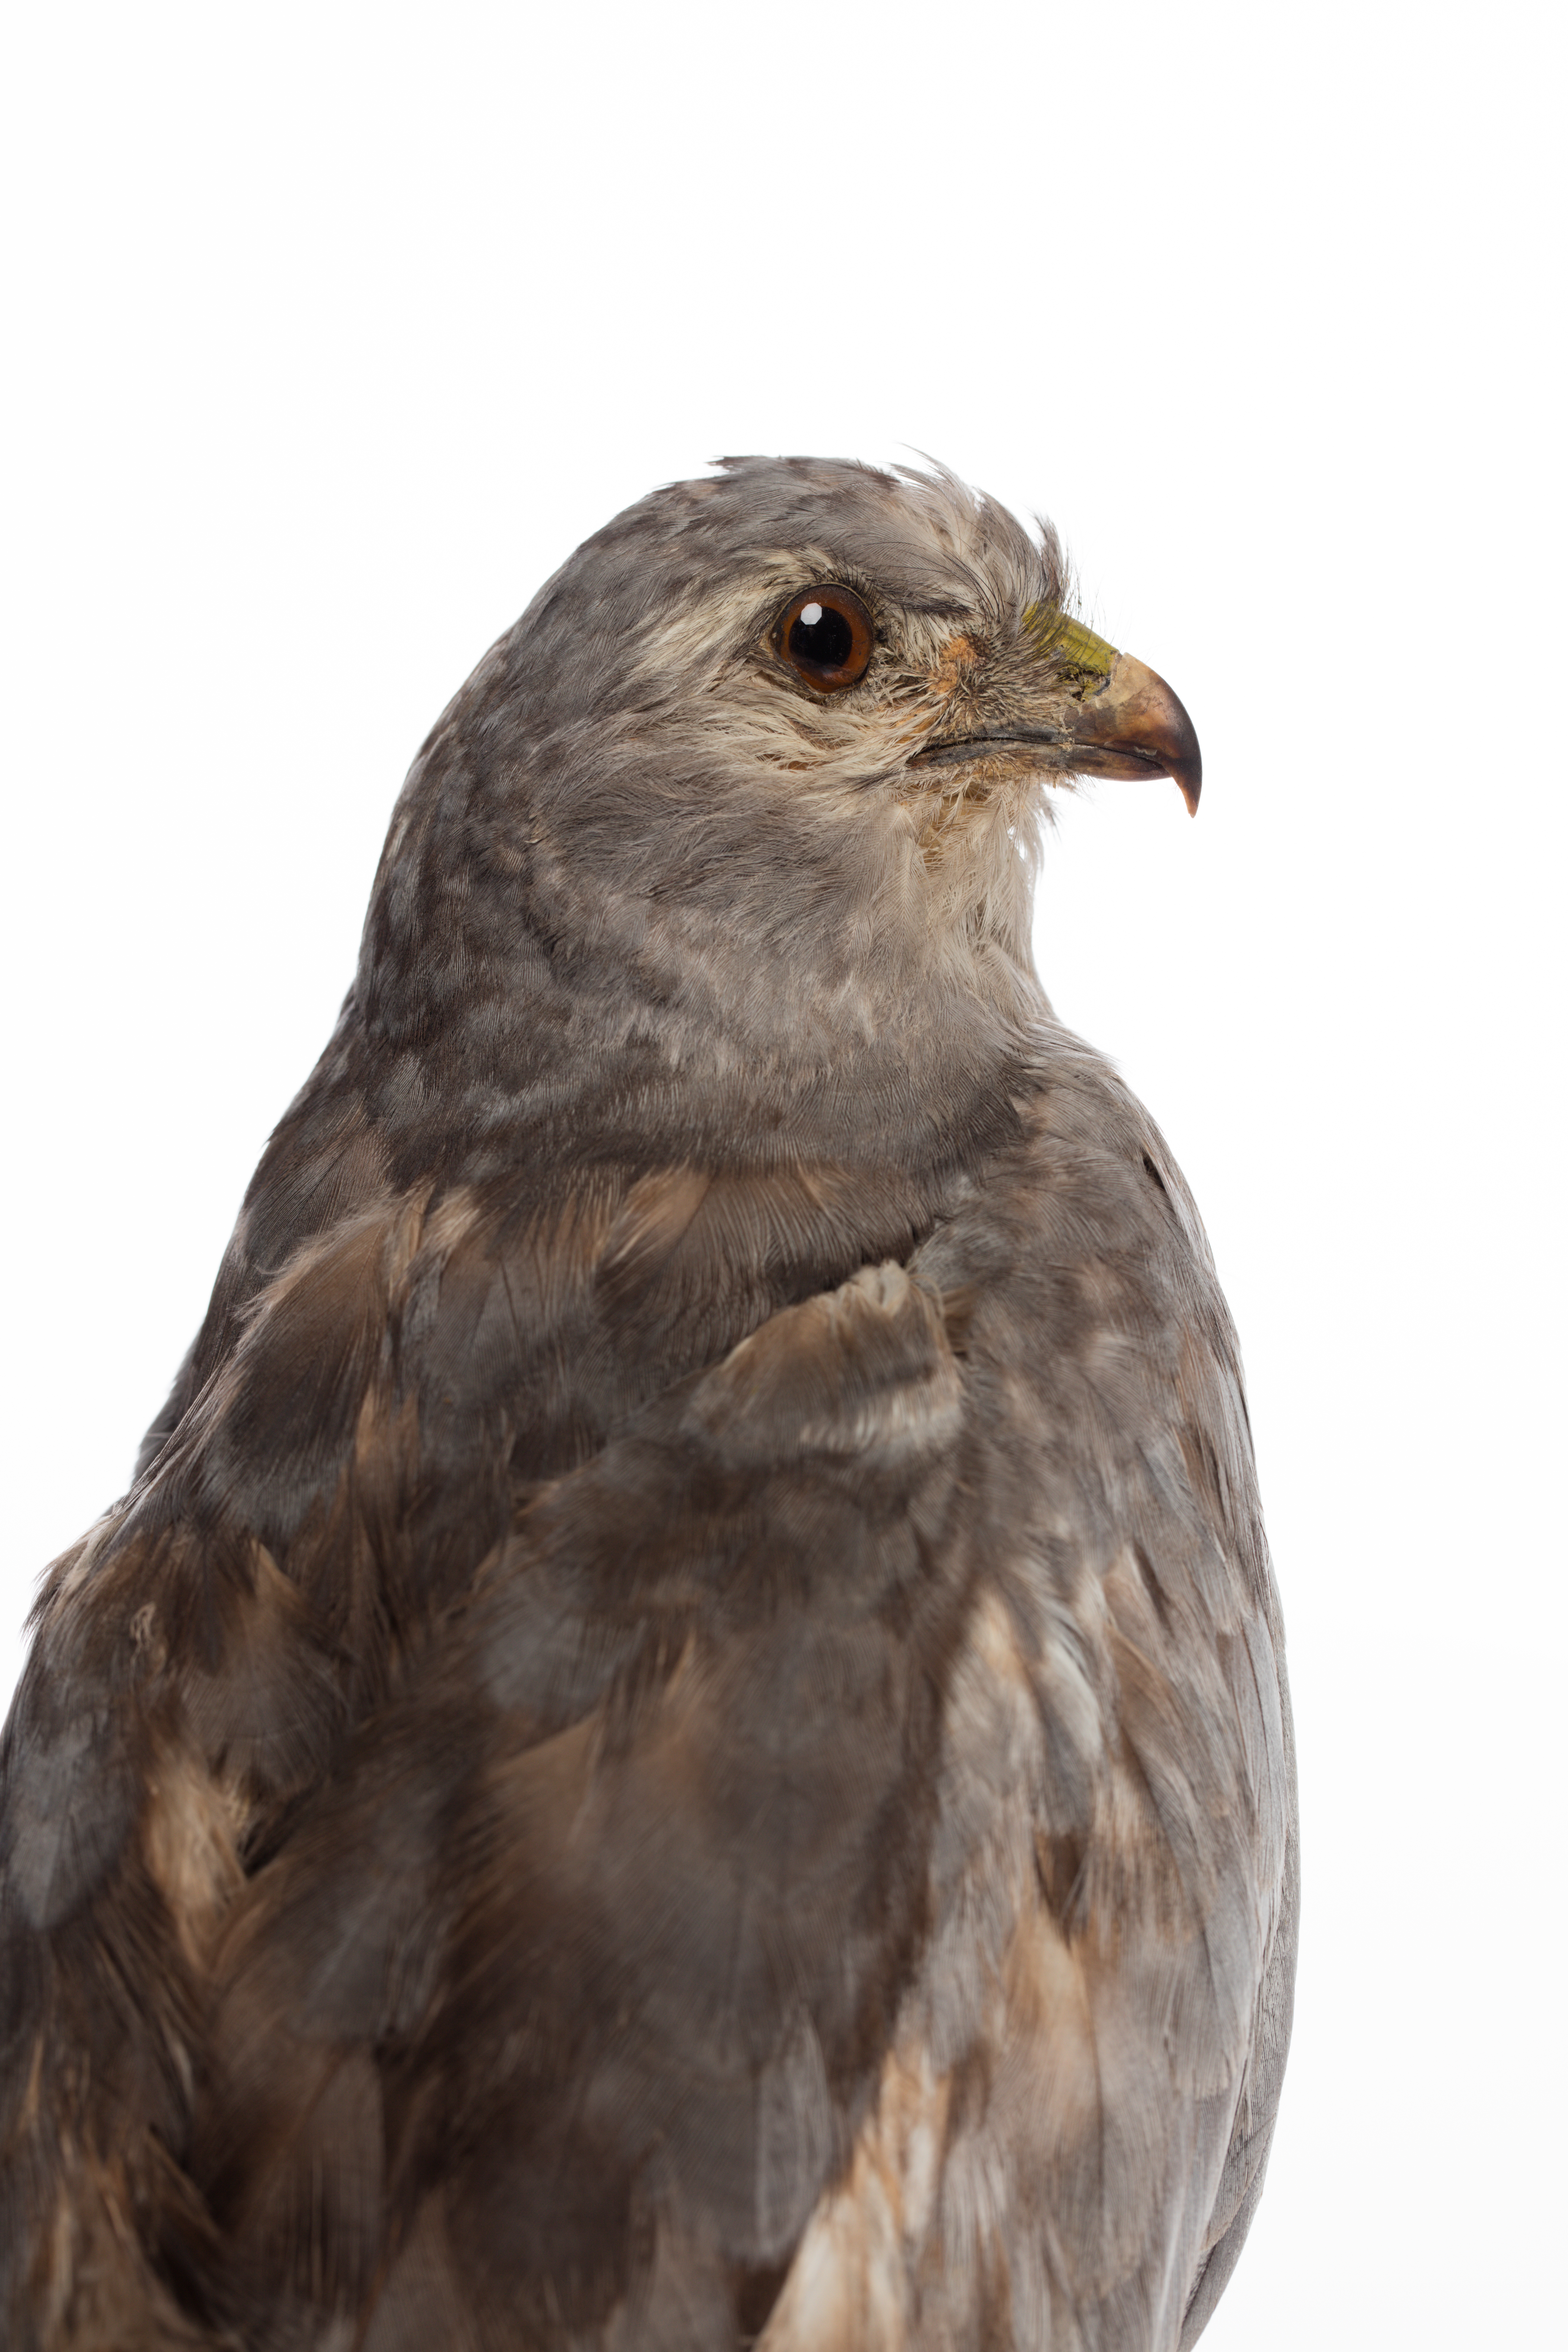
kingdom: Animalia
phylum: Chordata
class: Aves
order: Accipitriformes
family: Accipitridae
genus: Circus
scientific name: Circus pygargus
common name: Montagu's harrier
